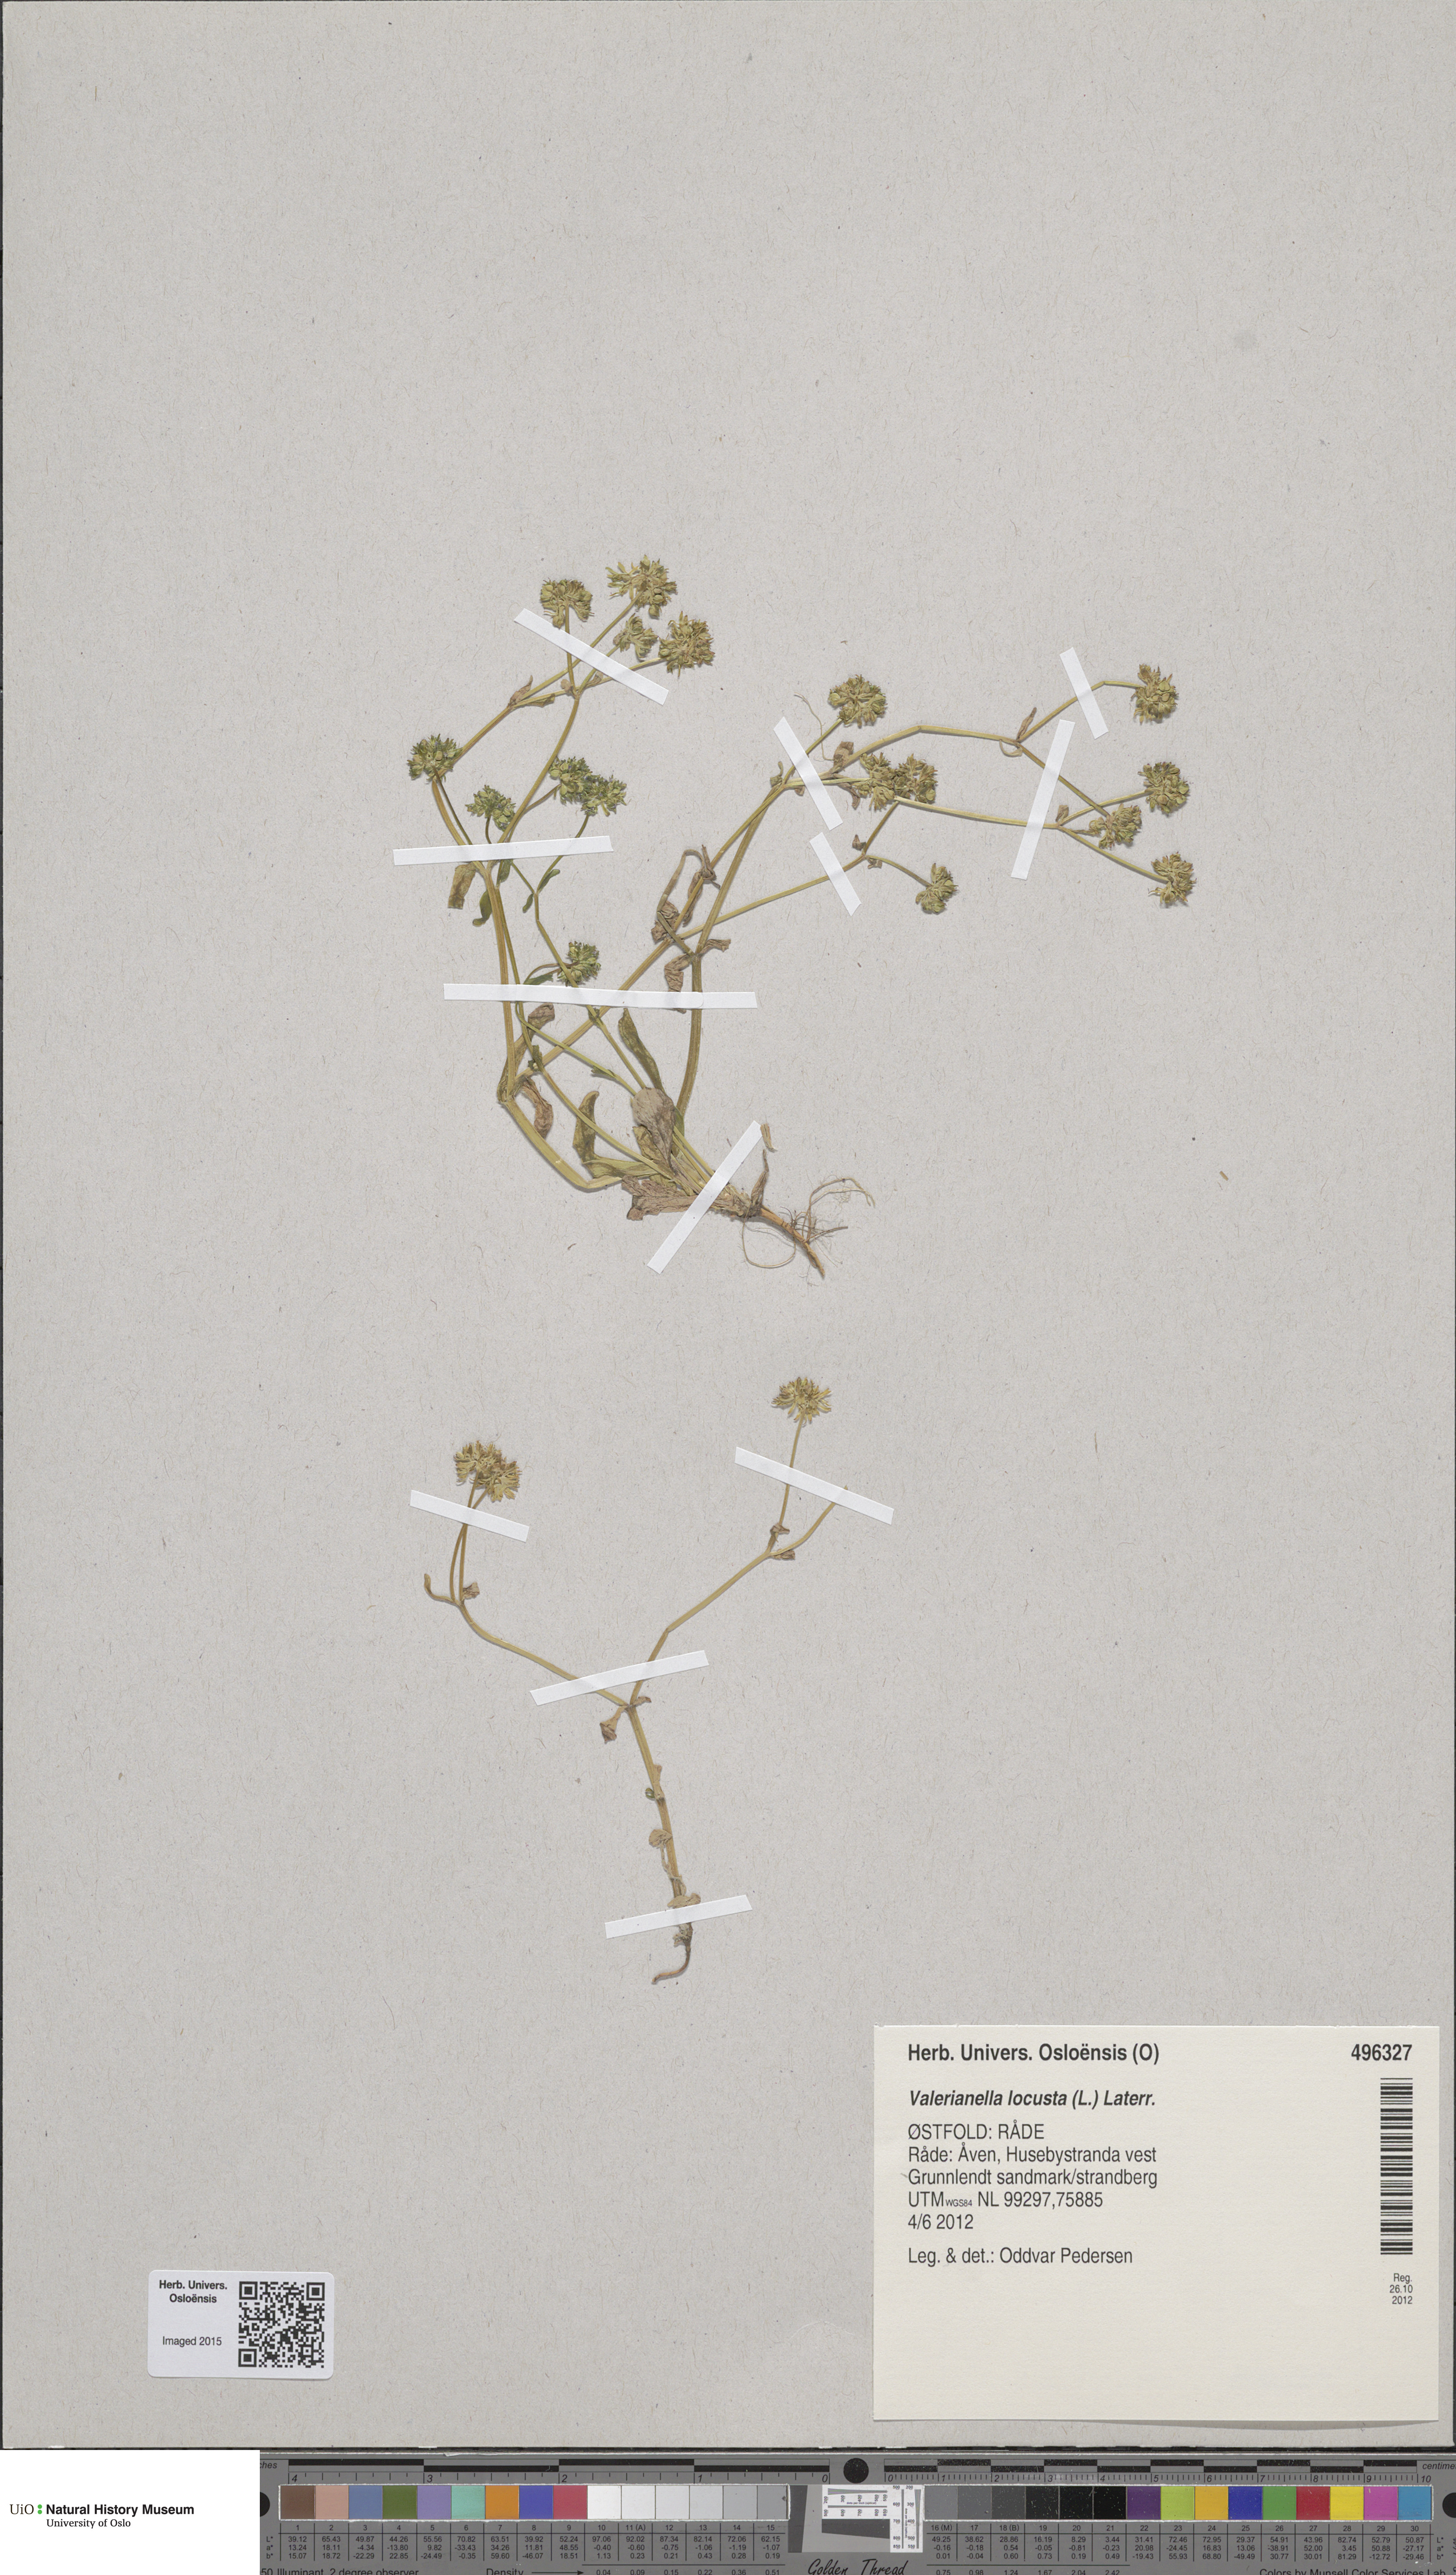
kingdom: Plantae
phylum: Tracheophyta
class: Magnoliopsida
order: Dipsacales
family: Caprifoliaceae
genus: Valerianella
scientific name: Valerianella locusta
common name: Common cornsalad
